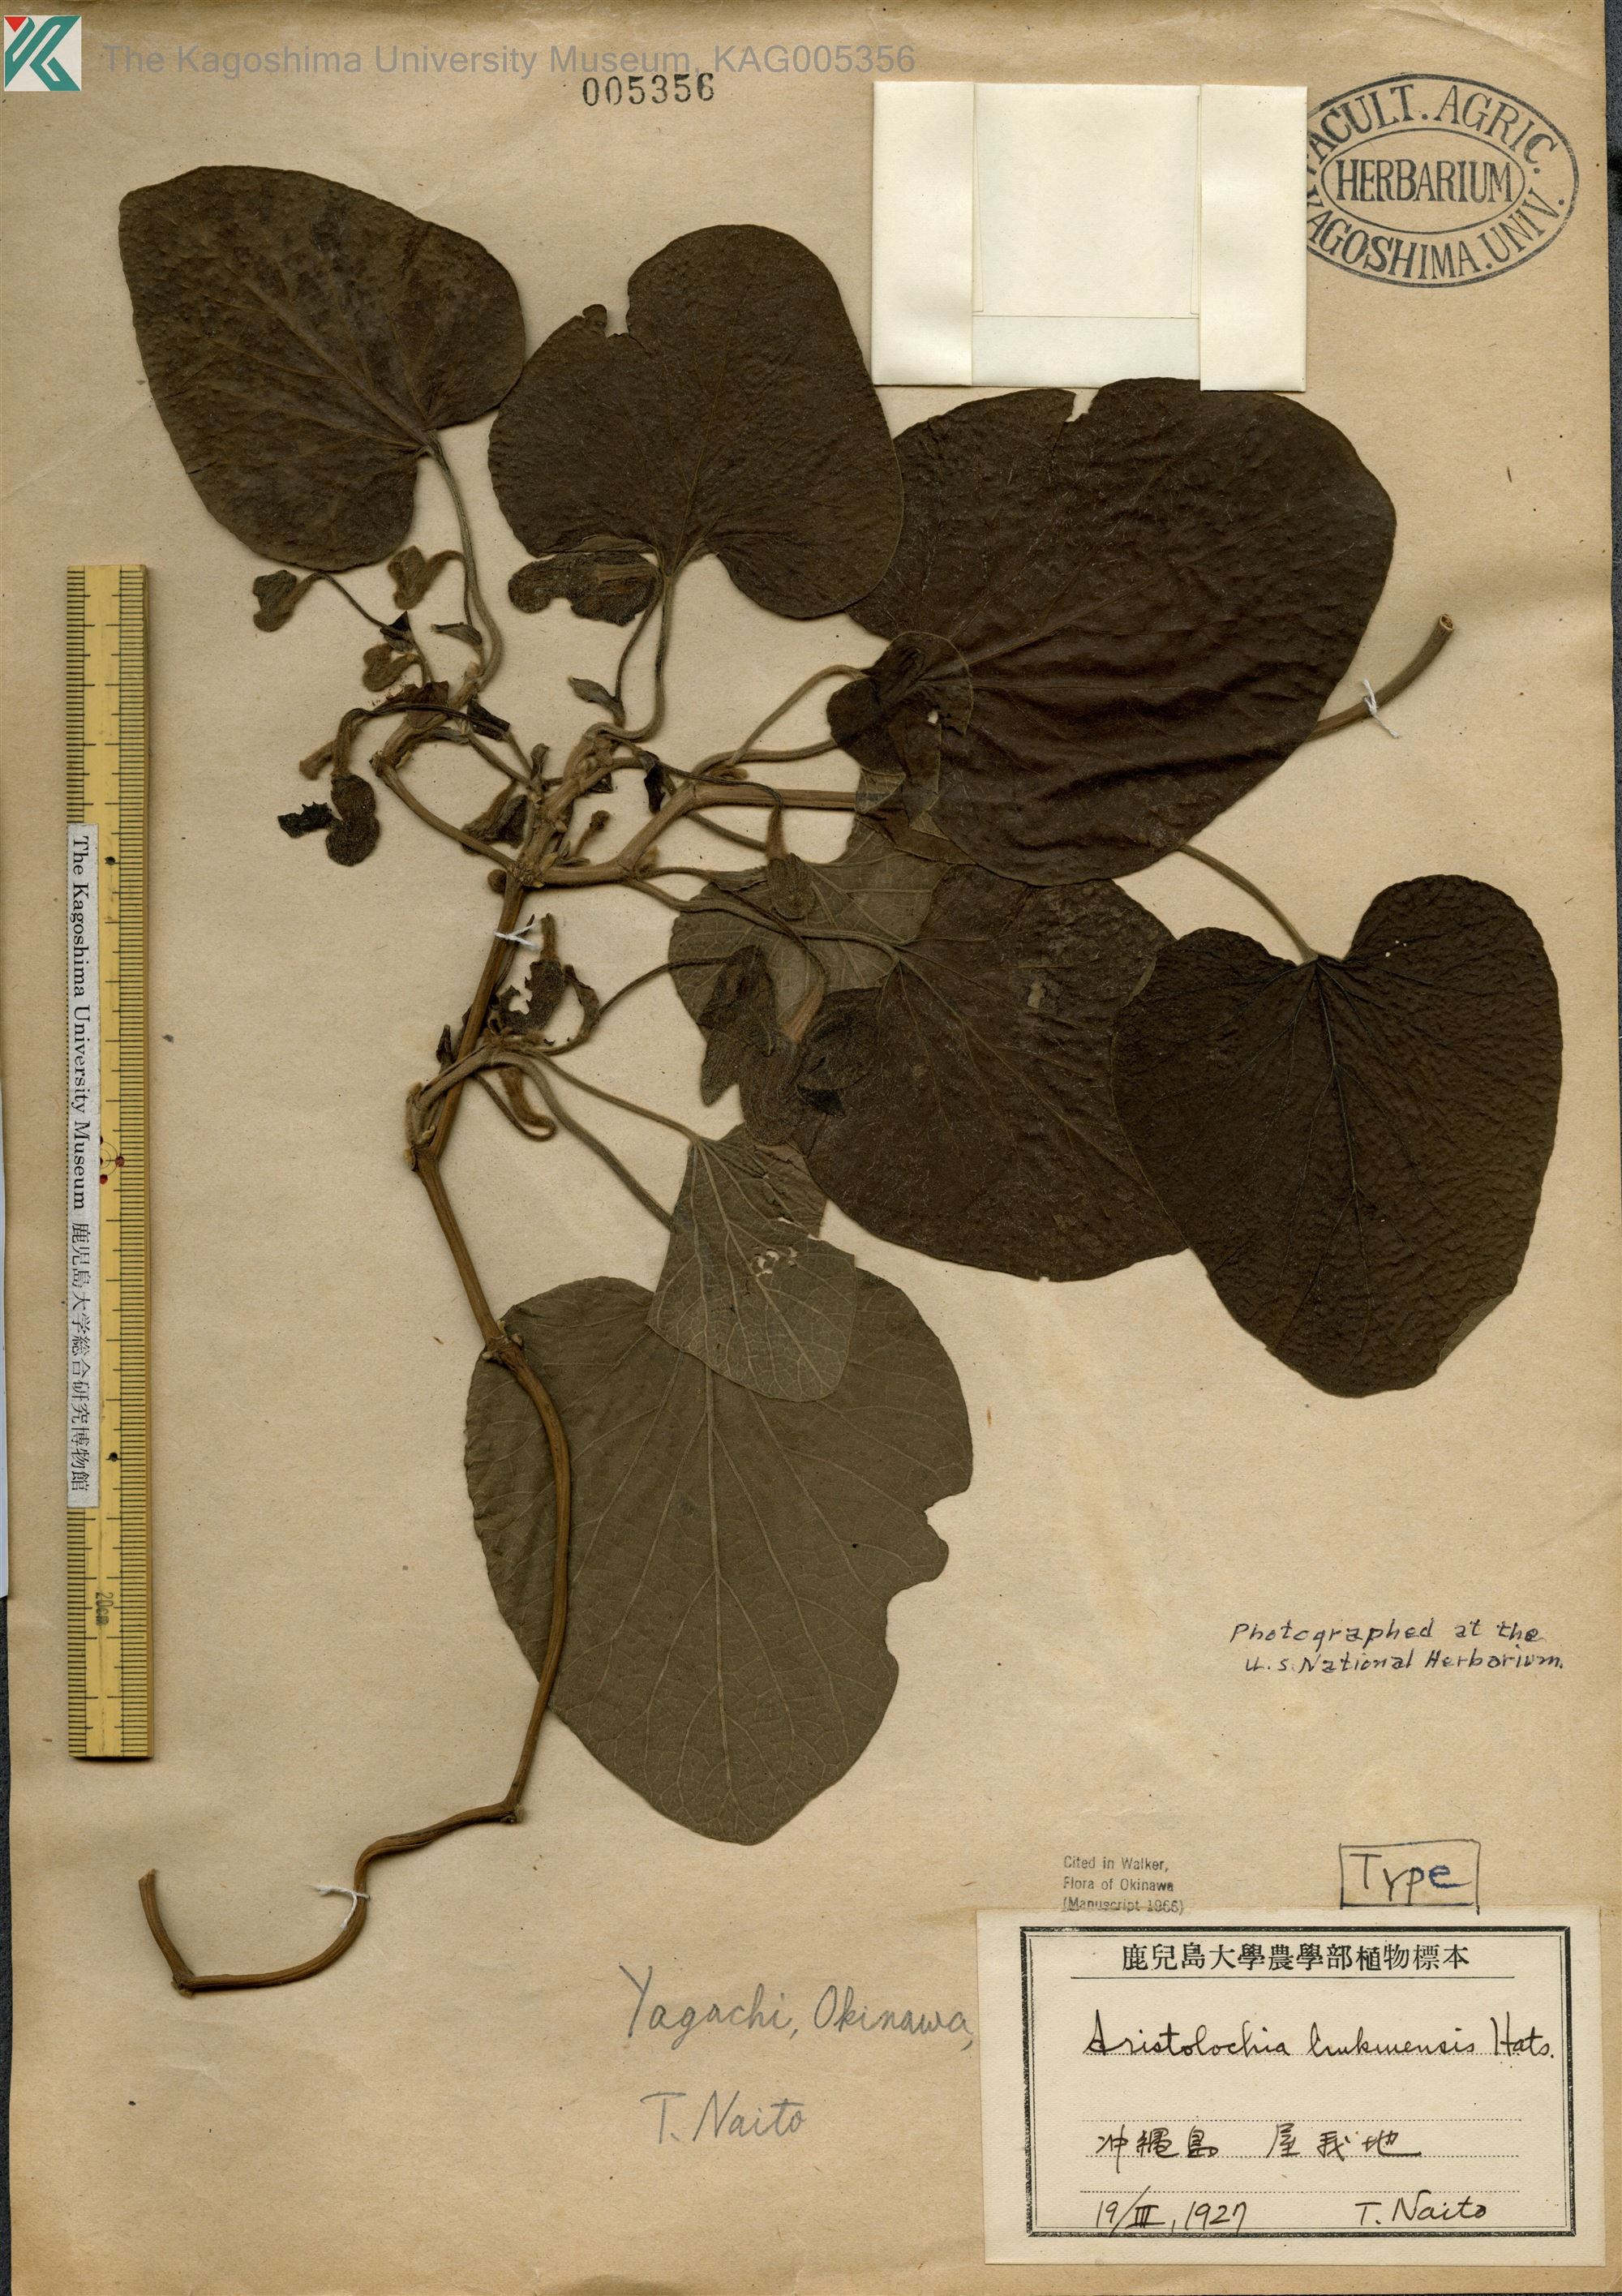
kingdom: Plantae
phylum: Tracheophyta
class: Magnoliopsida
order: Piperales
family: Aristolochiaceae
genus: Isotrema
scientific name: Isotrema liukiuense
